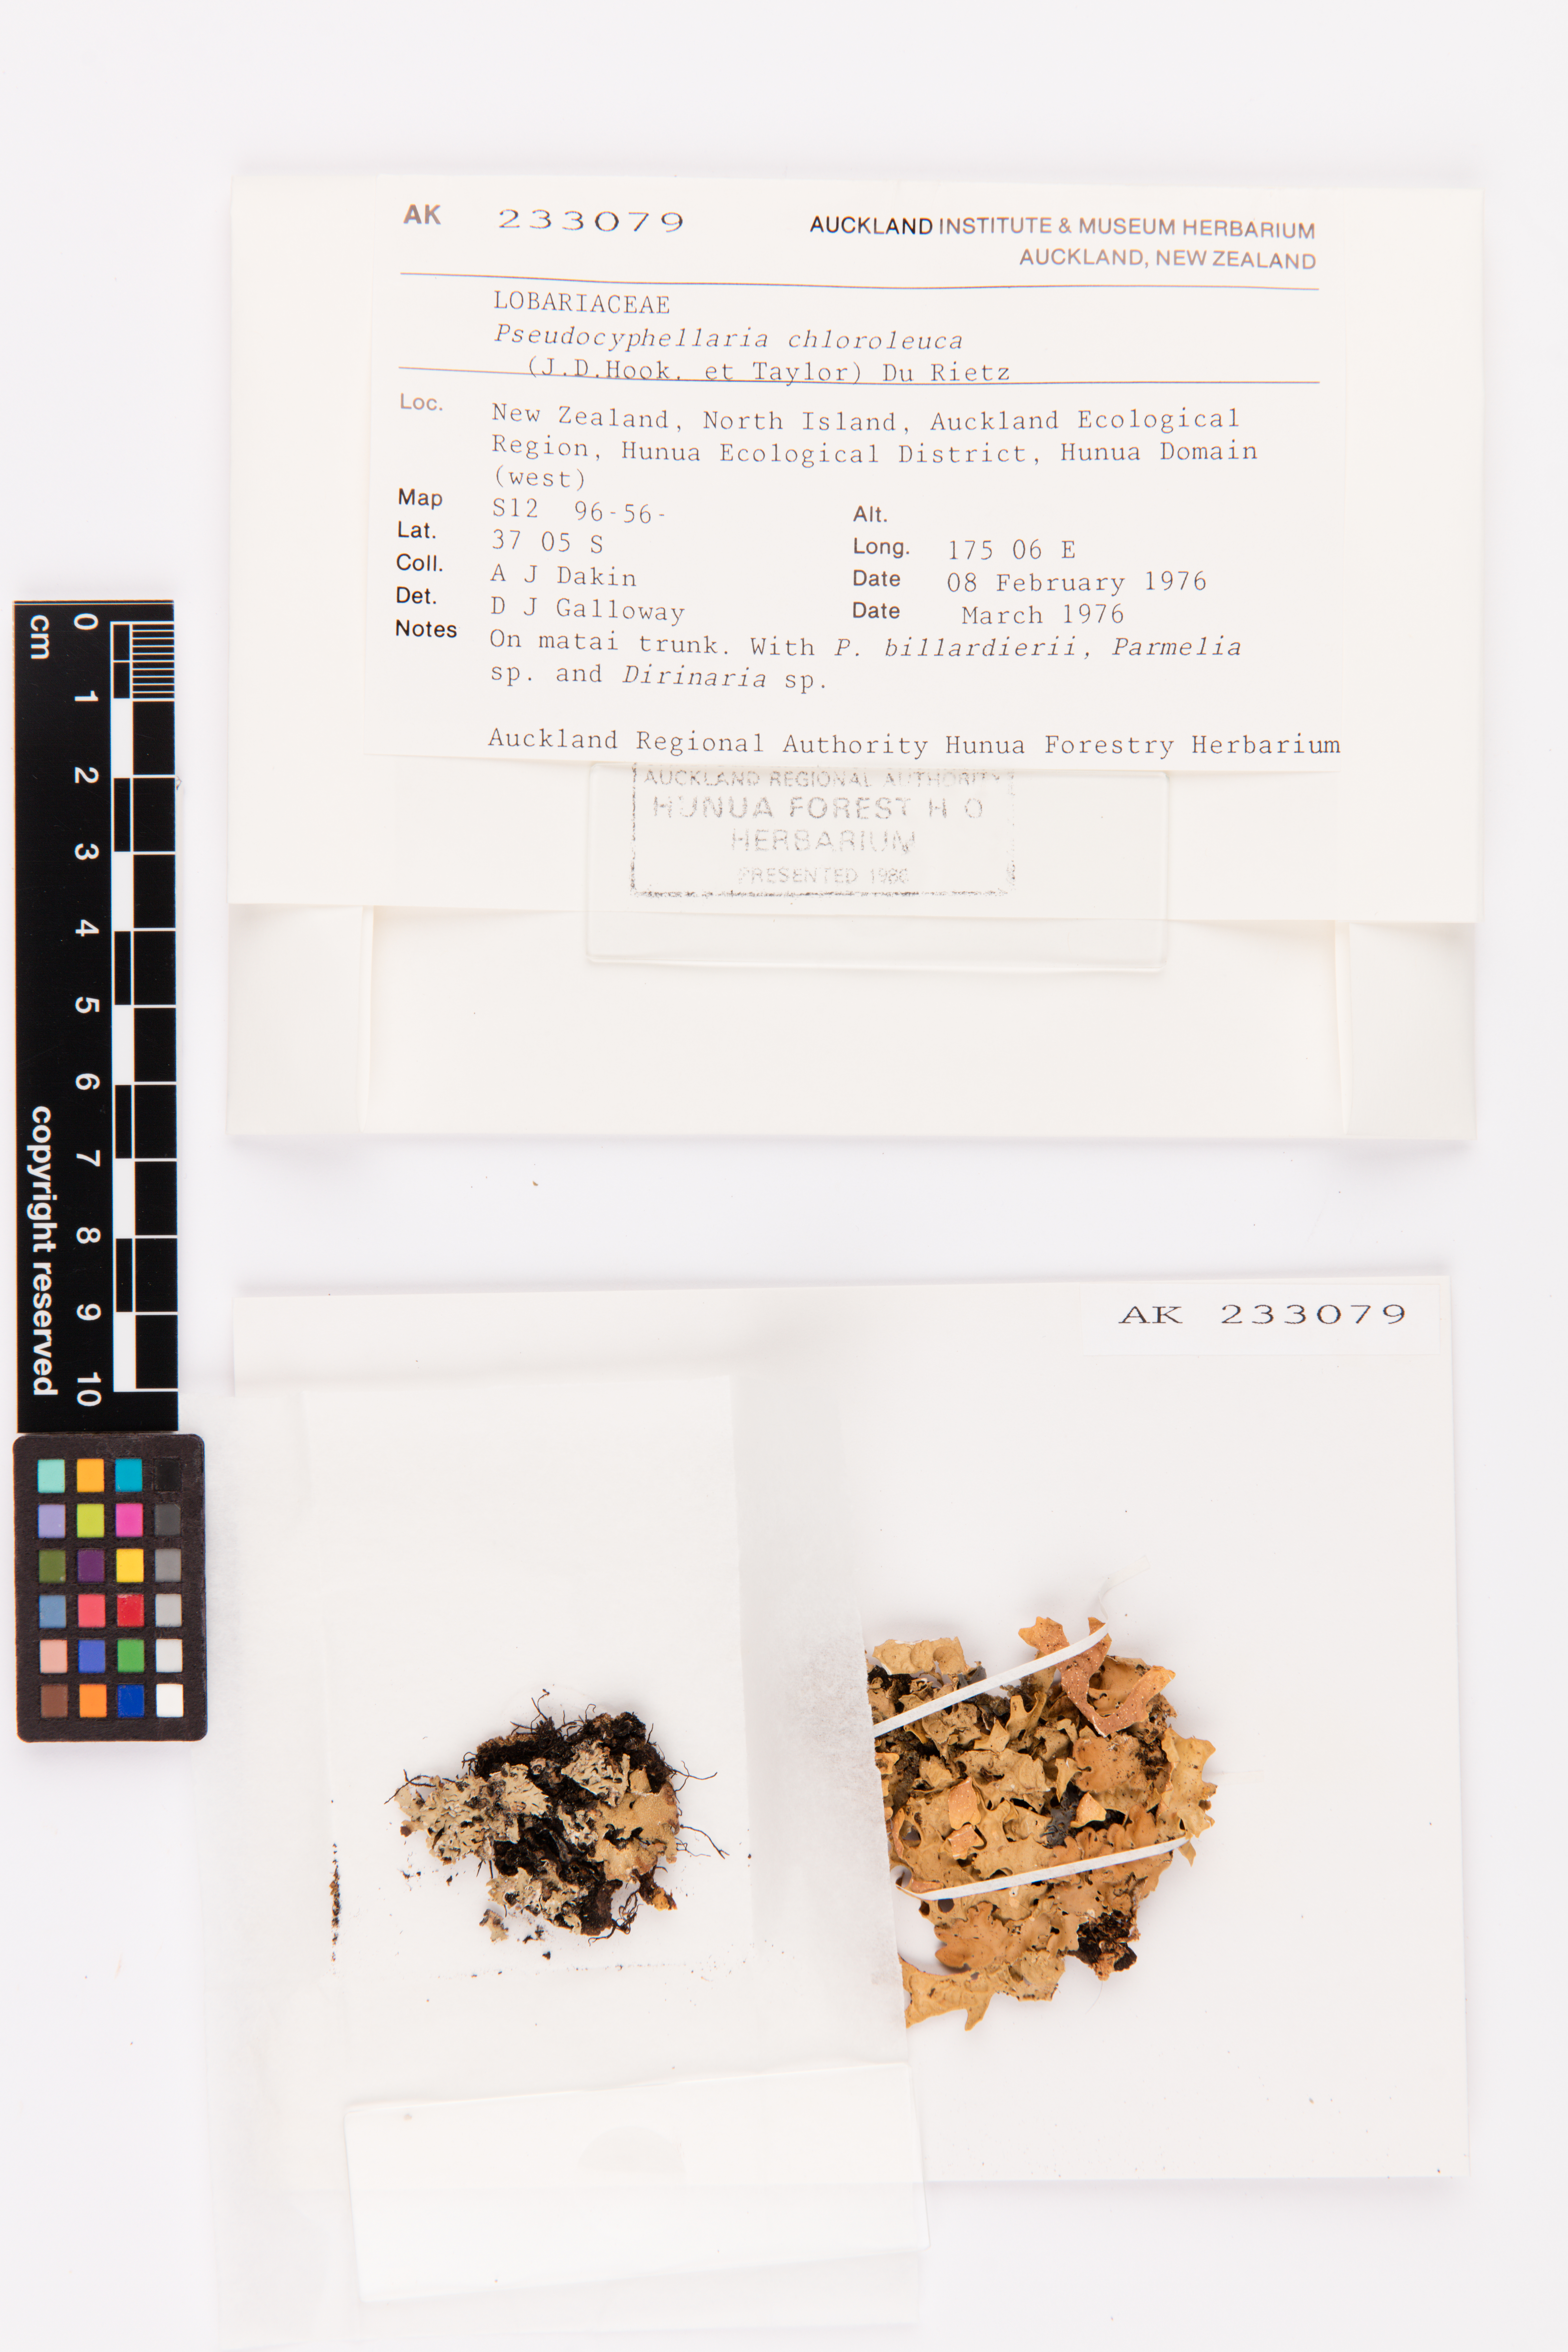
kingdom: Fungi
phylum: Ascomycota
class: Lecanoromycetes
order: Peltigerales
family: Lobariaceae
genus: Pseudocyphellaria
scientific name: Pseudocyphellaria chloroleuca
